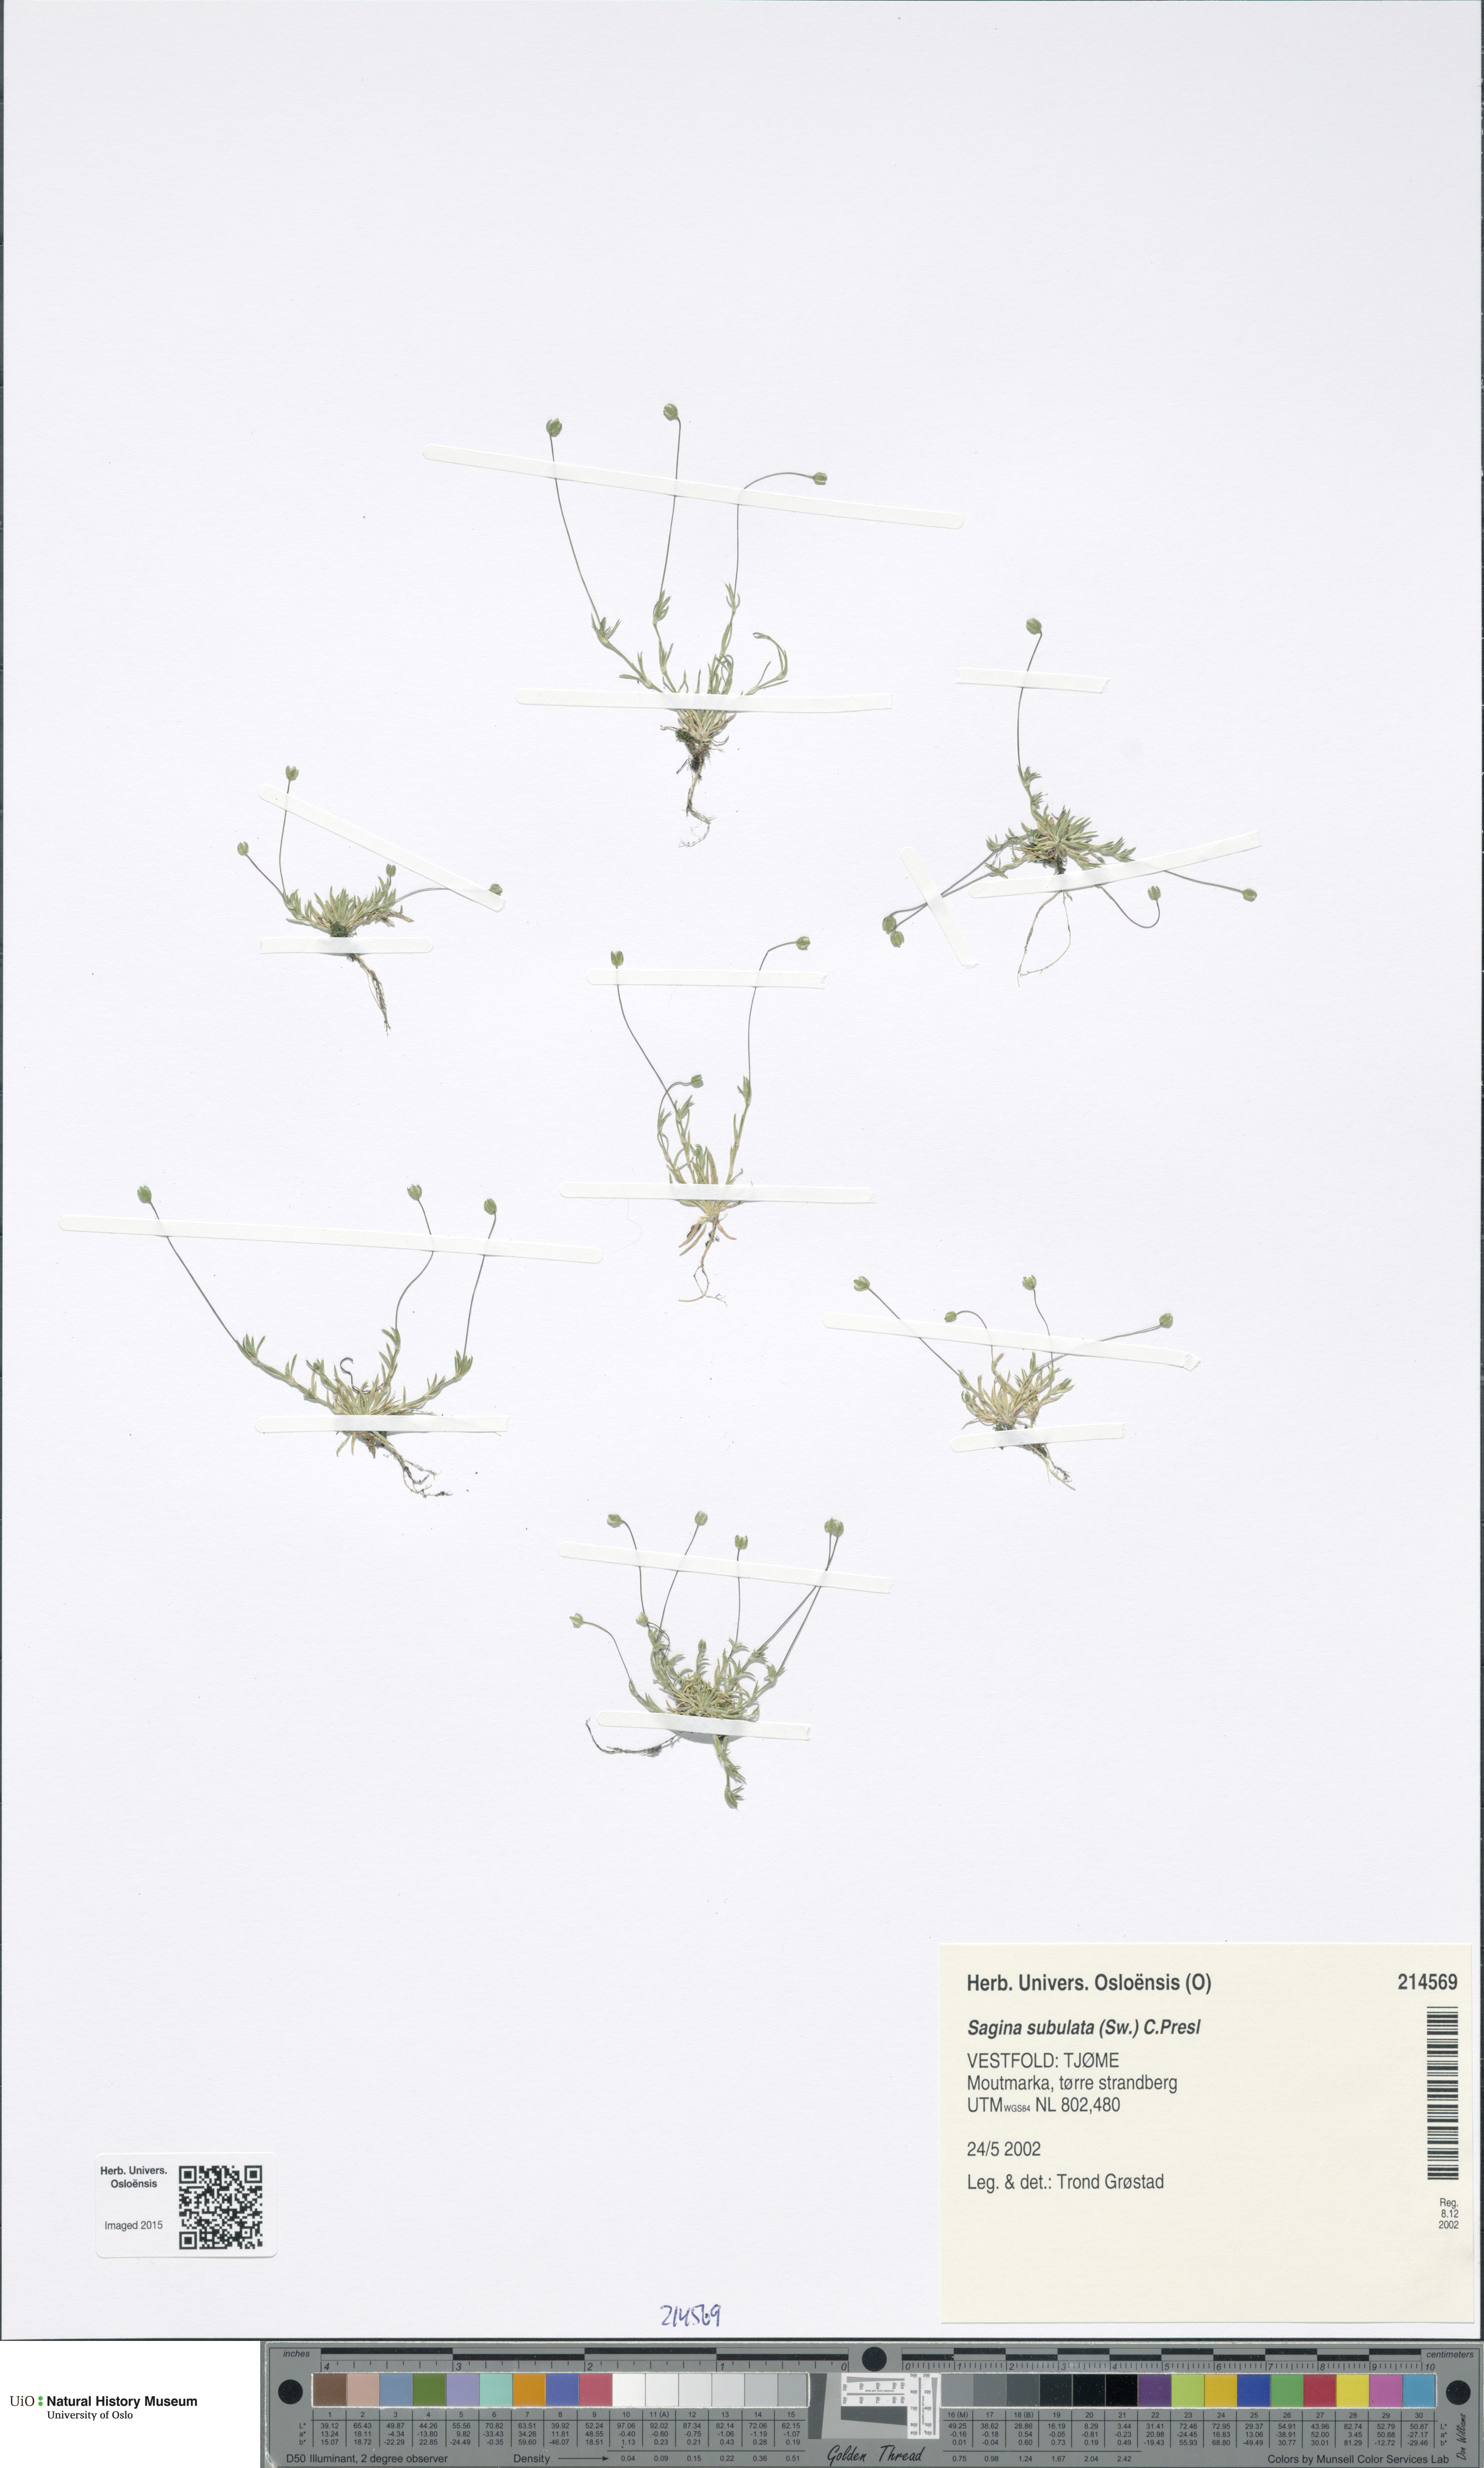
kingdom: Plantae
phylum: Tracheophyta
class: Magnoliopsida
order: Caryophyllales
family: Caryophyllaceae
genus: Sagina
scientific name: Sagina alexandrae
